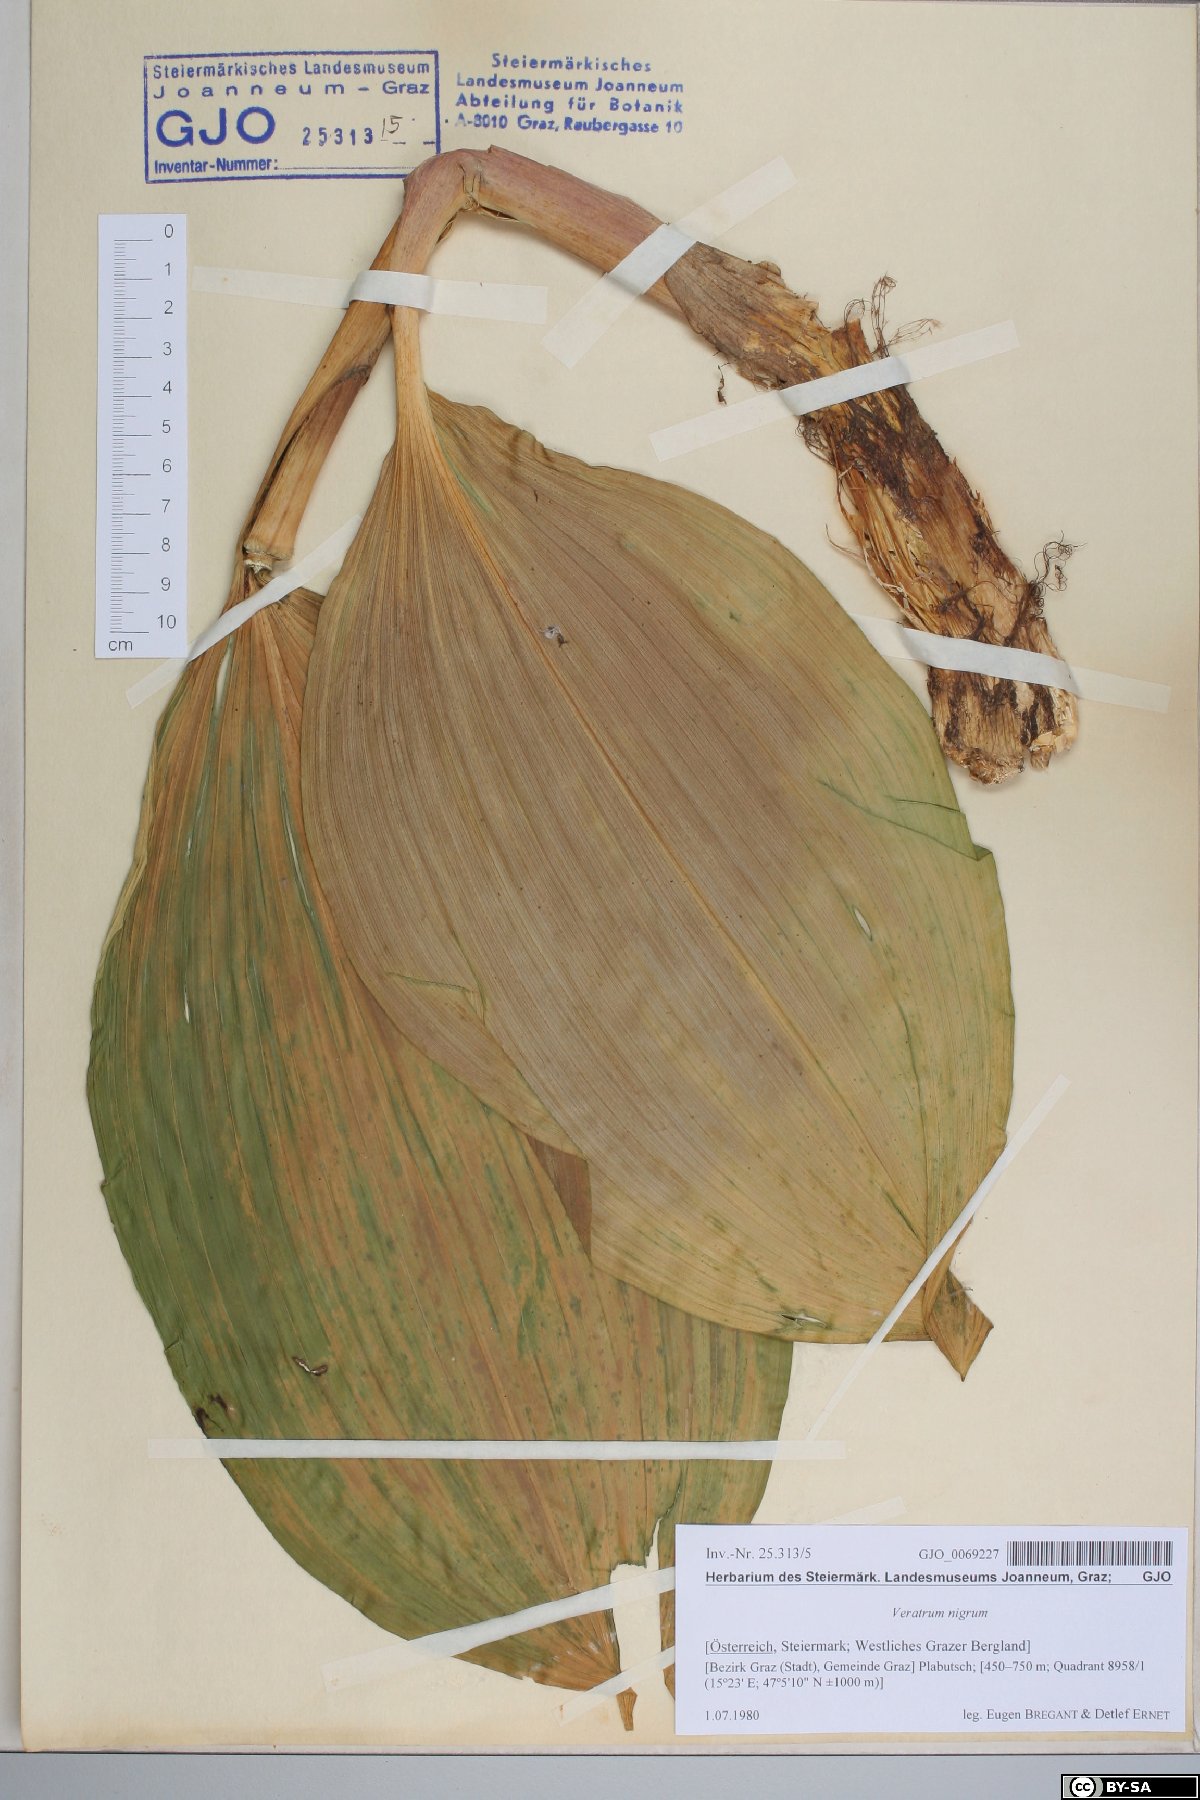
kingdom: Plantae
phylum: Tracheophyta
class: Liliopsida
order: Liliales
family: Melanthiaceae
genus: Veratrum
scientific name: Veratrum nigrum
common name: Black veratrum
